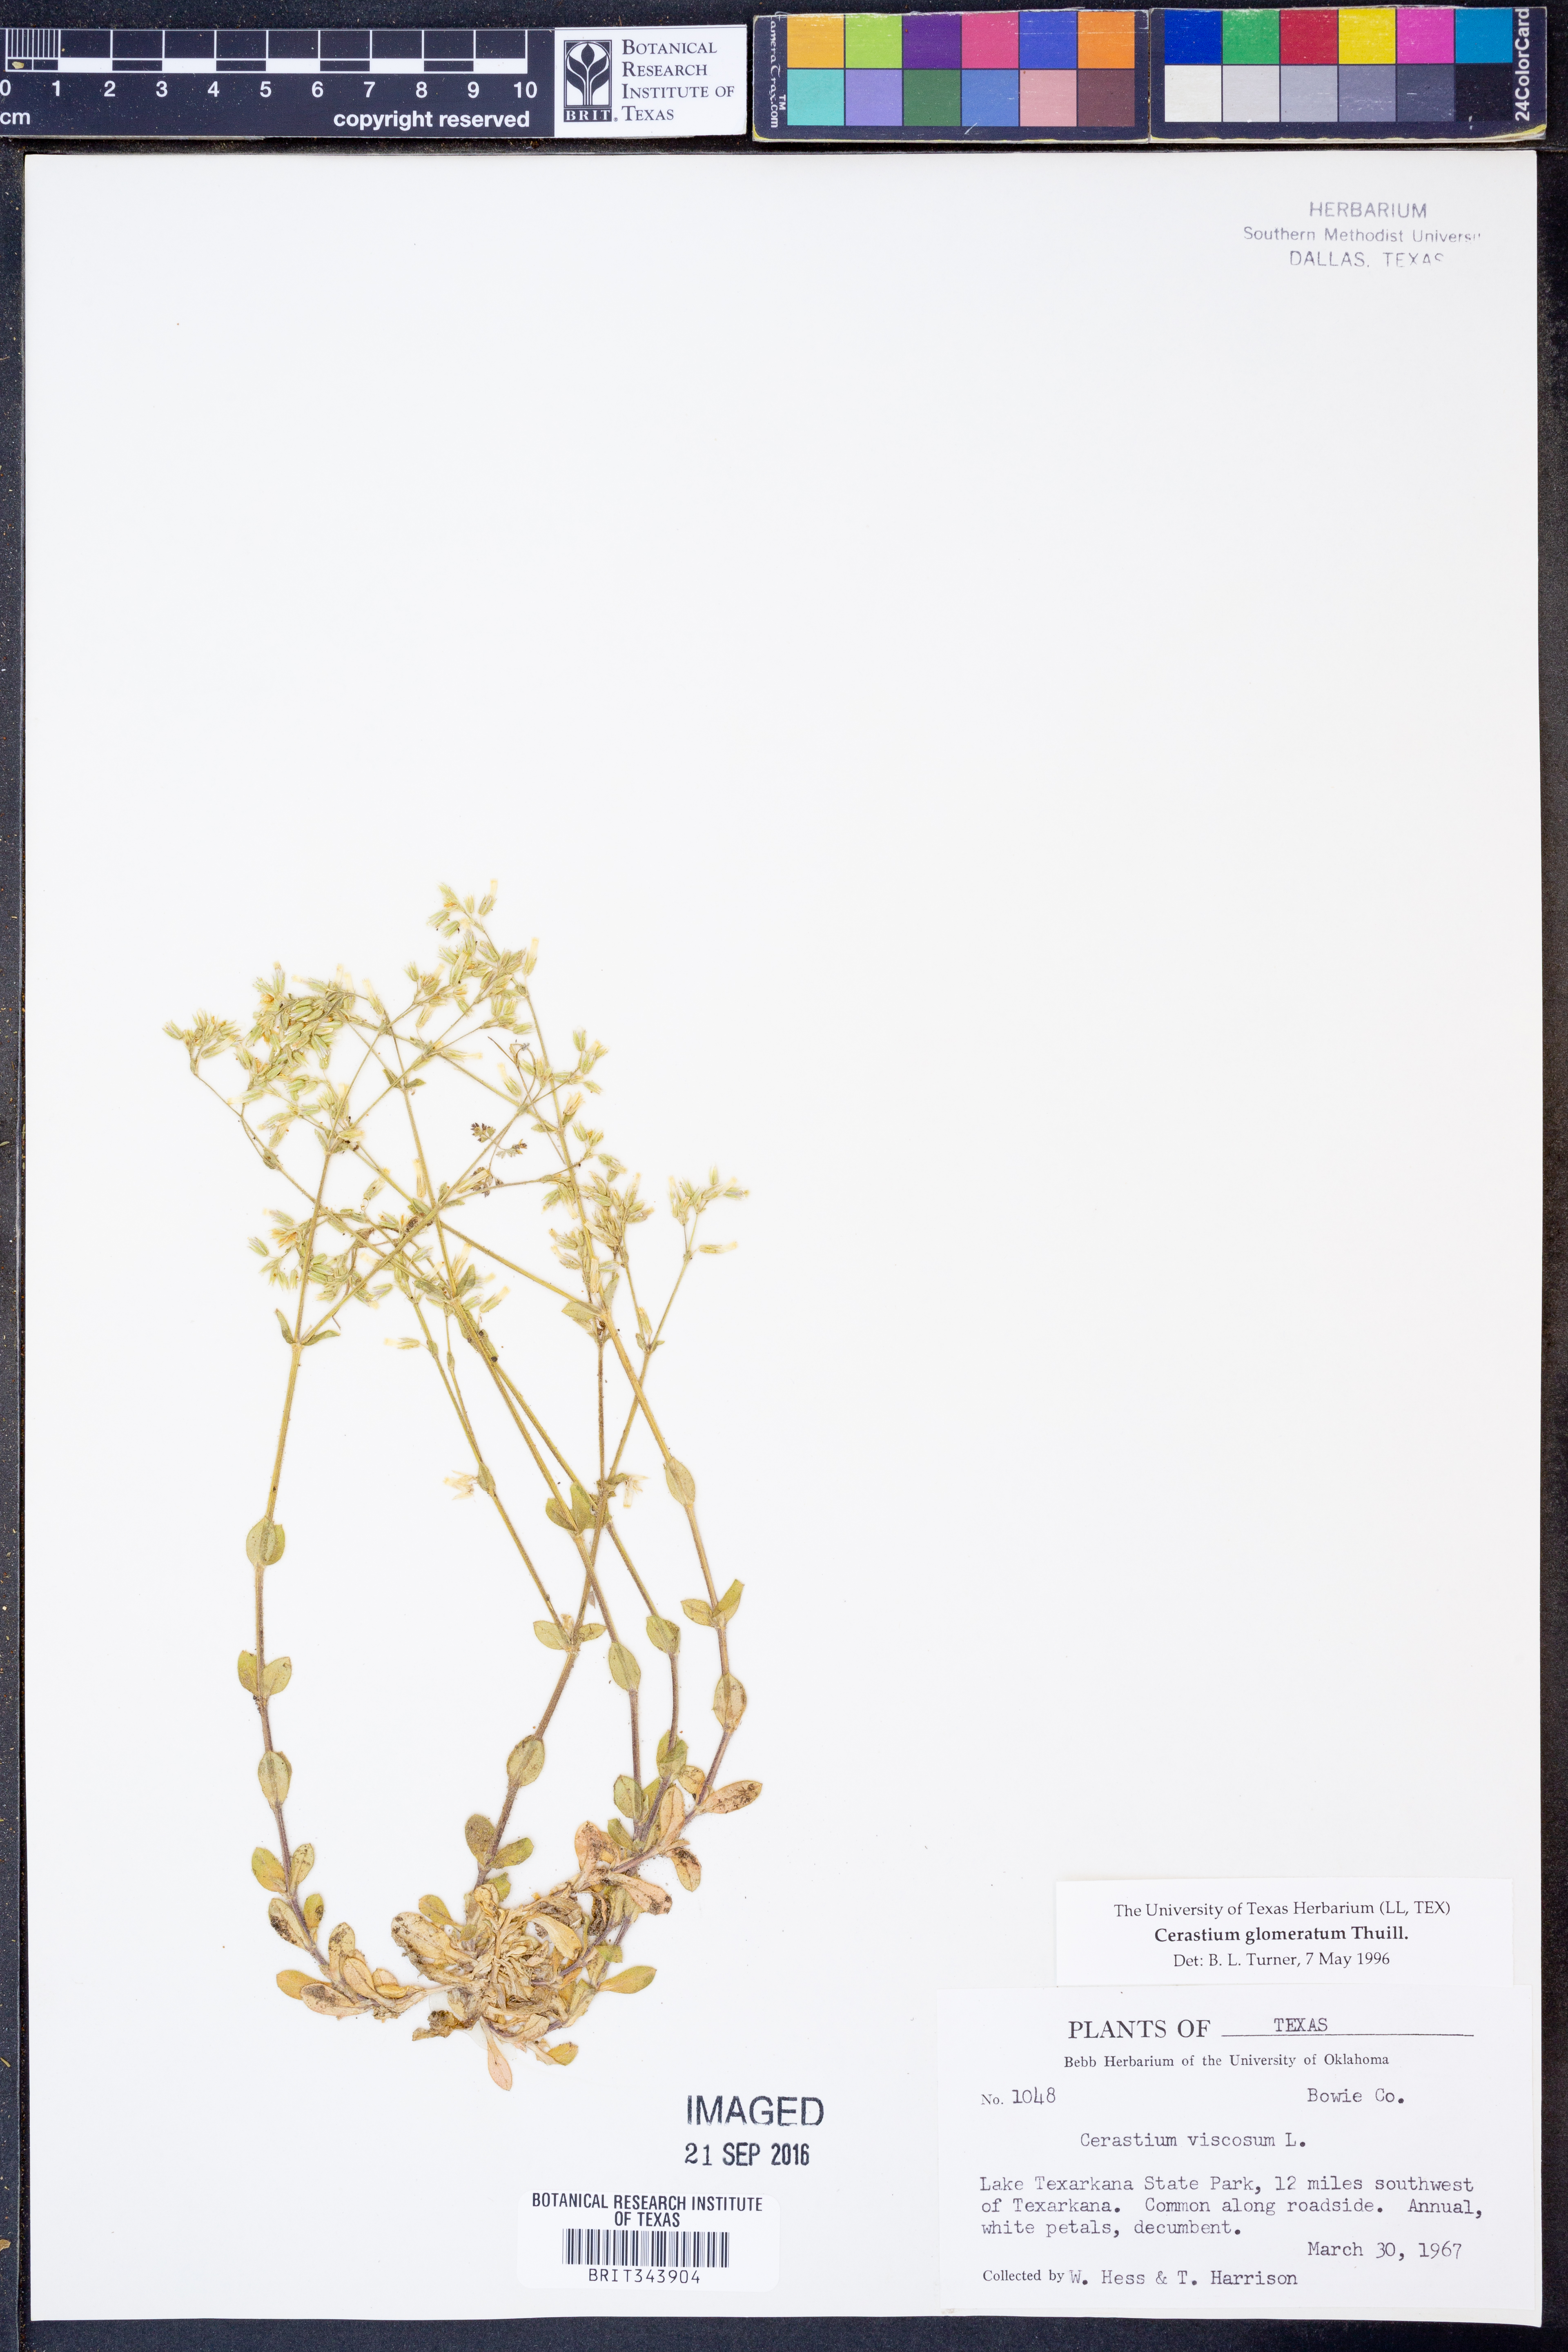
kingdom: Plantae
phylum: Tracheophyta
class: Magnoliopsida
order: Caryophyllales
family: Caryophyllaceae
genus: Cerastium
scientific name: Cerastium glomeratum
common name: Sticky chickweed
